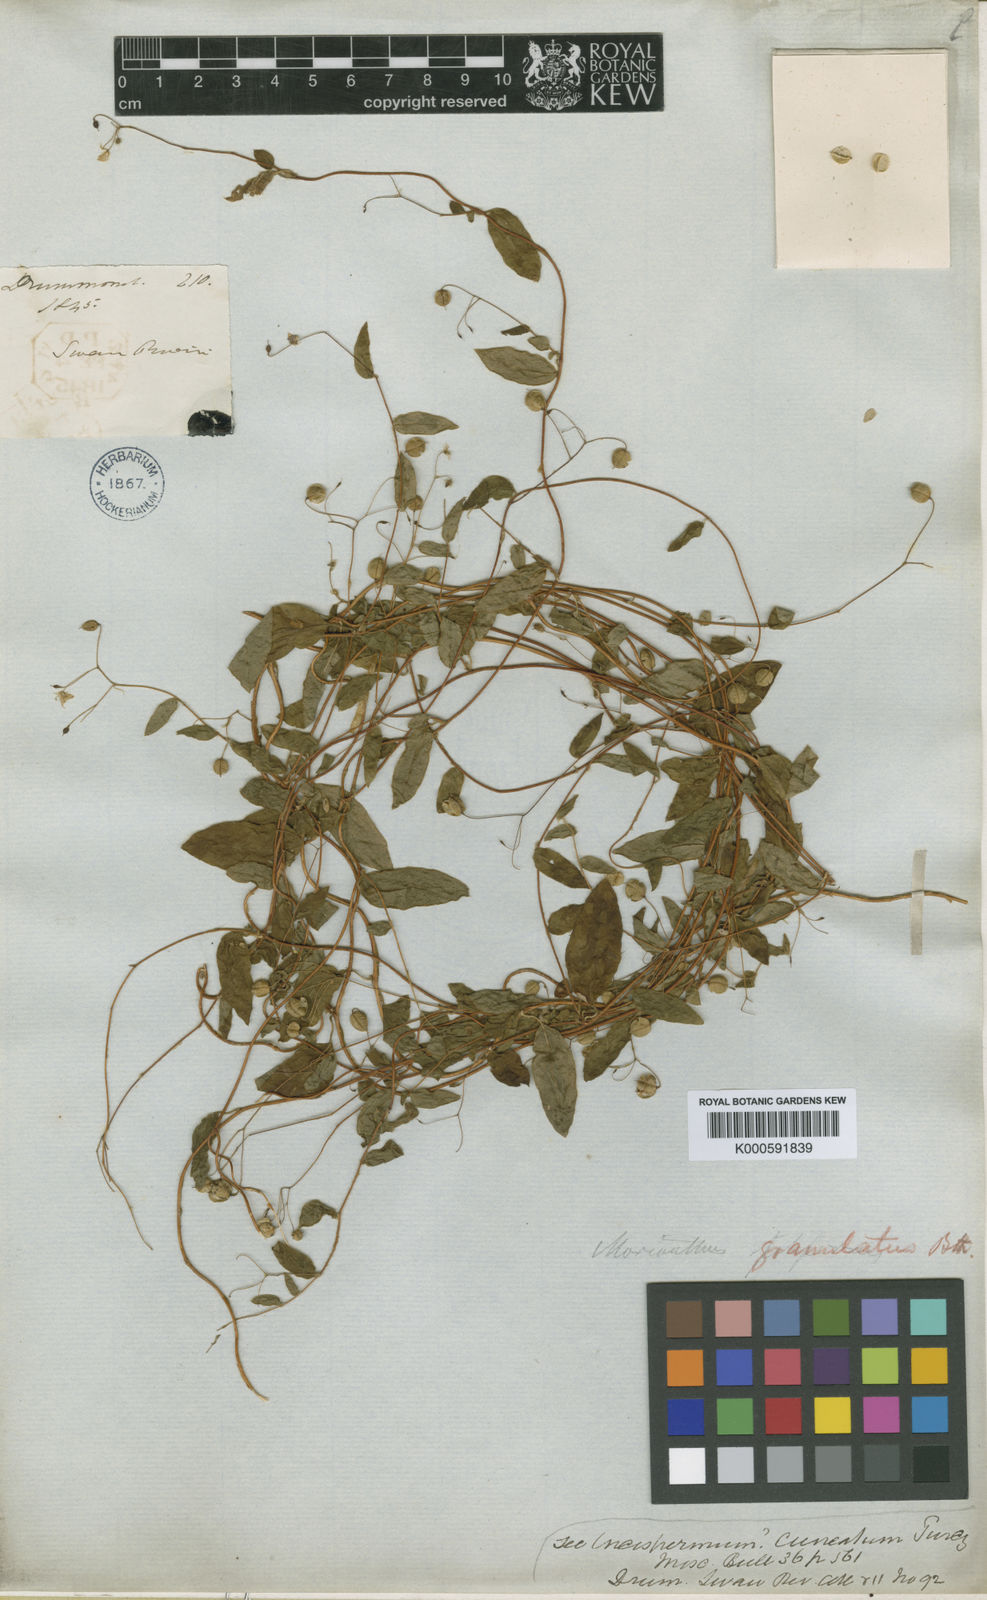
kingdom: Plantae
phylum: Tracheophyta
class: Magnoliopsida
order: Apiales
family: Pittosporaceae
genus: Marianthus
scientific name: Marianthus granulatus
